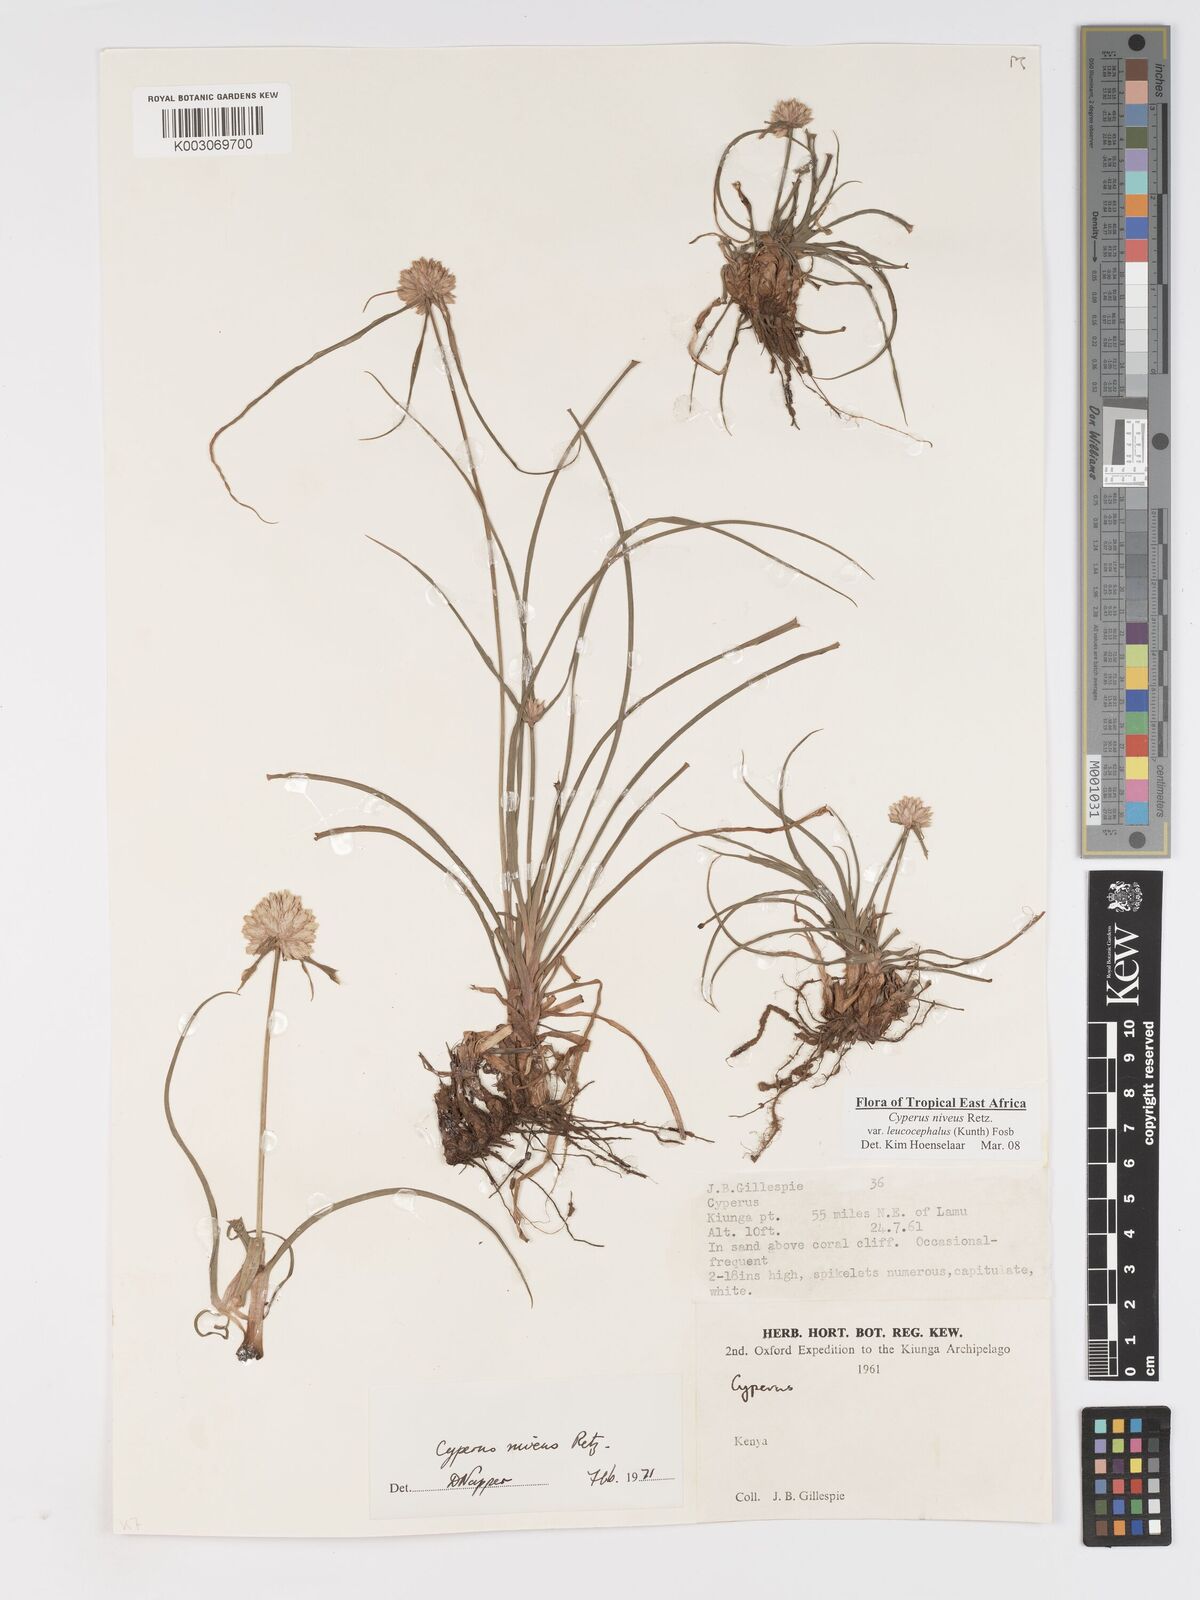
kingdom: Plantae
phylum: Tracheophyta
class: Liliopsida
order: Poales
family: Cyperaceae
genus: Cyperus
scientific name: Cyperus niveus
